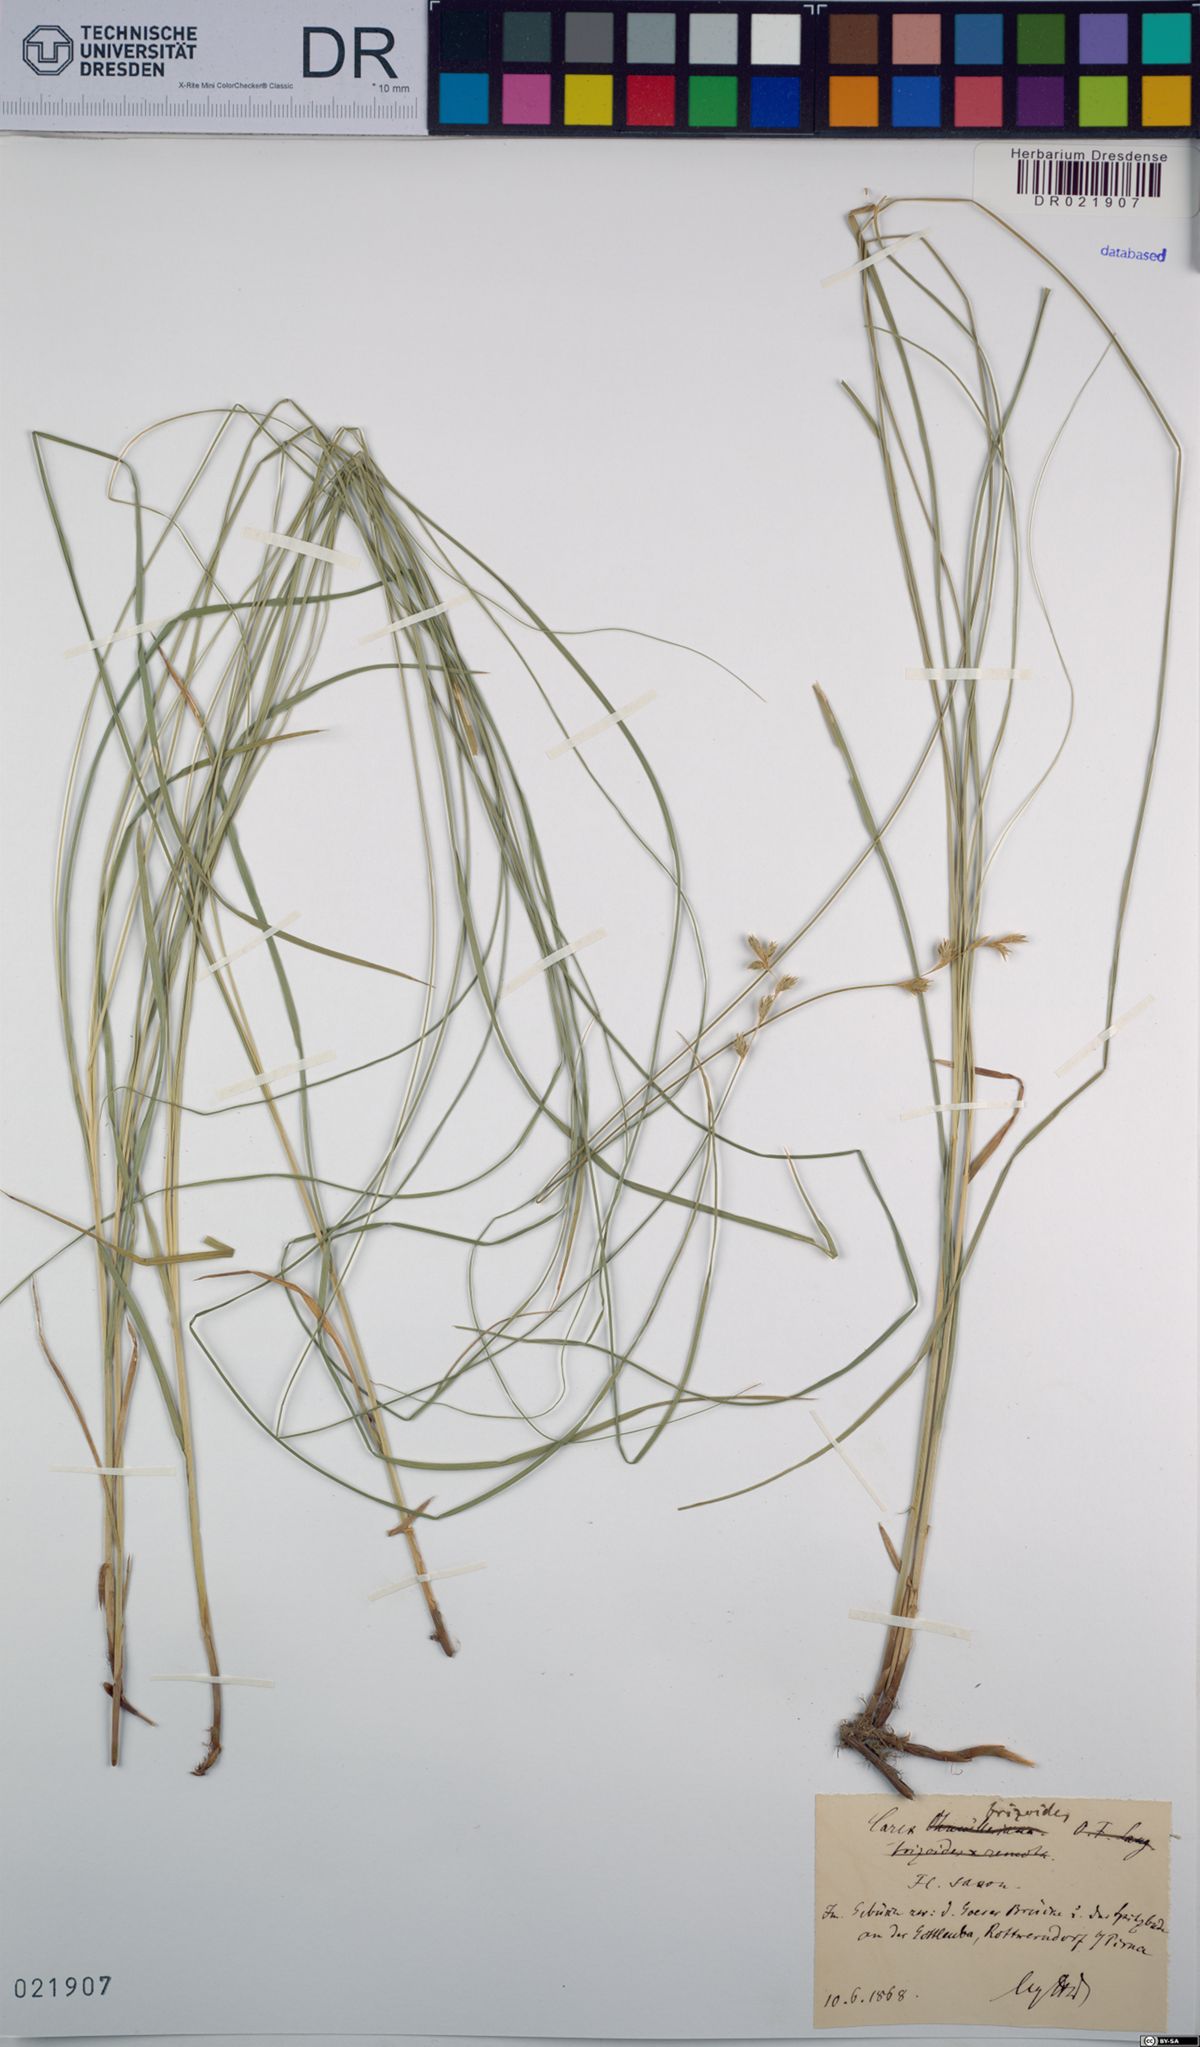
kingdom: Plantae
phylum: Tracheophyta
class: Liliopsida
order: Poales
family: Cyperaceae
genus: Carex
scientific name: Carex brizoides
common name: Quaking-grass sedge
